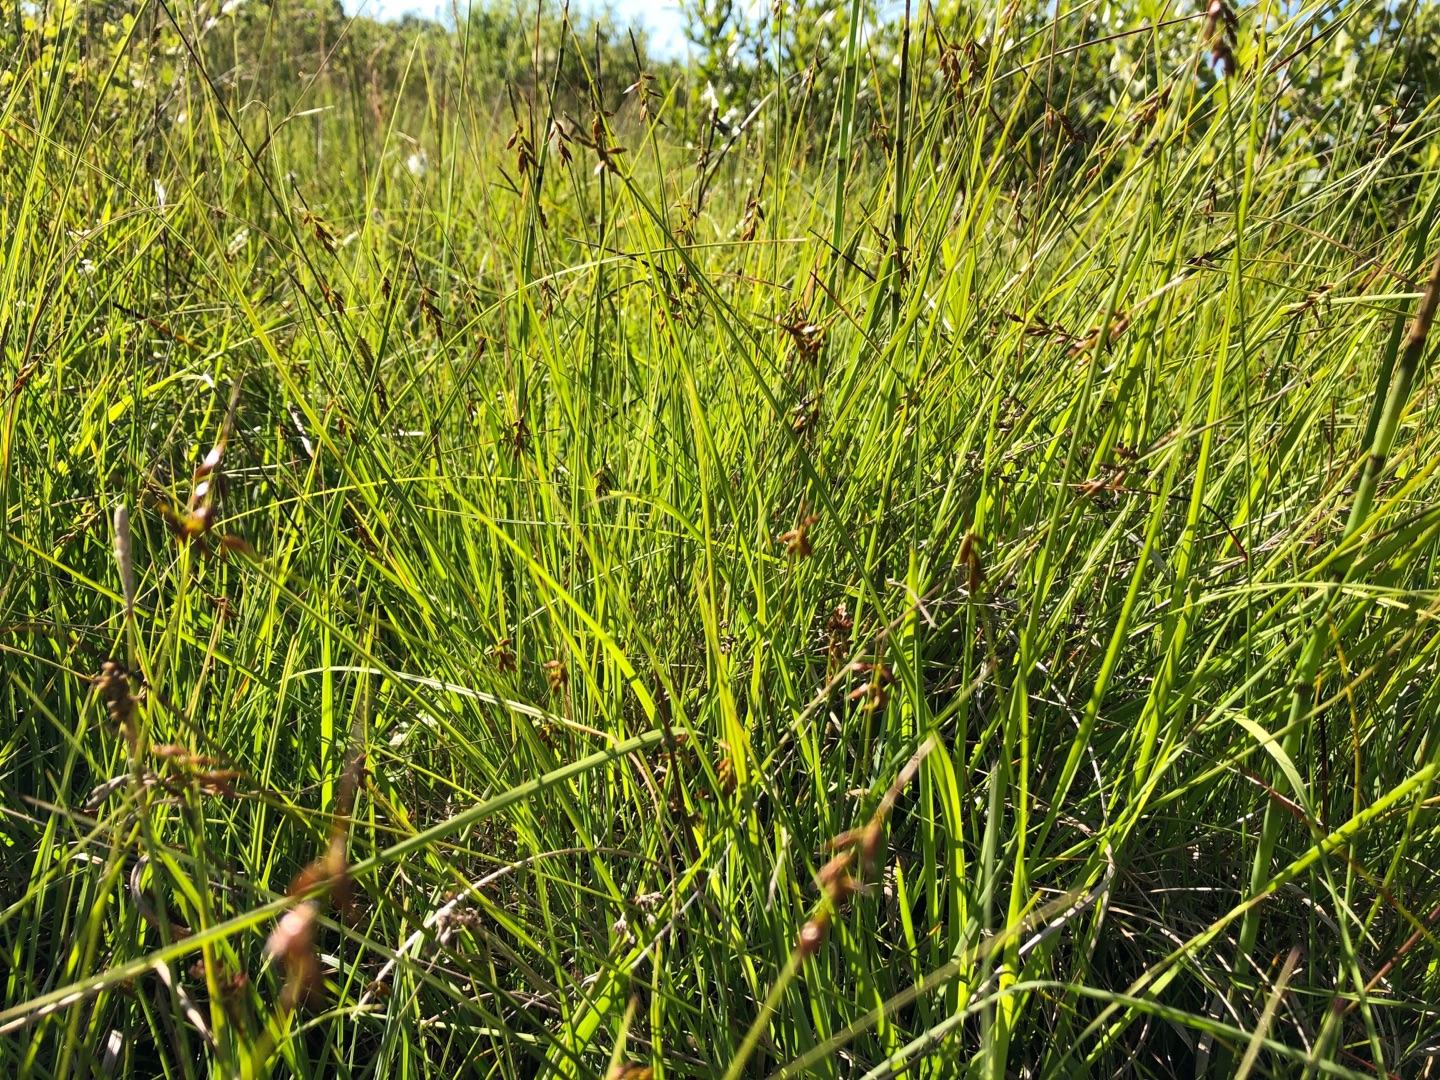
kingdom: Plantae
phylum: Tracheophyta
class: Liliopsida
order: Poales
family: Cyperaceae
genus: Carex
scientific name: Carex pulicaris
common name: Loppe-star
